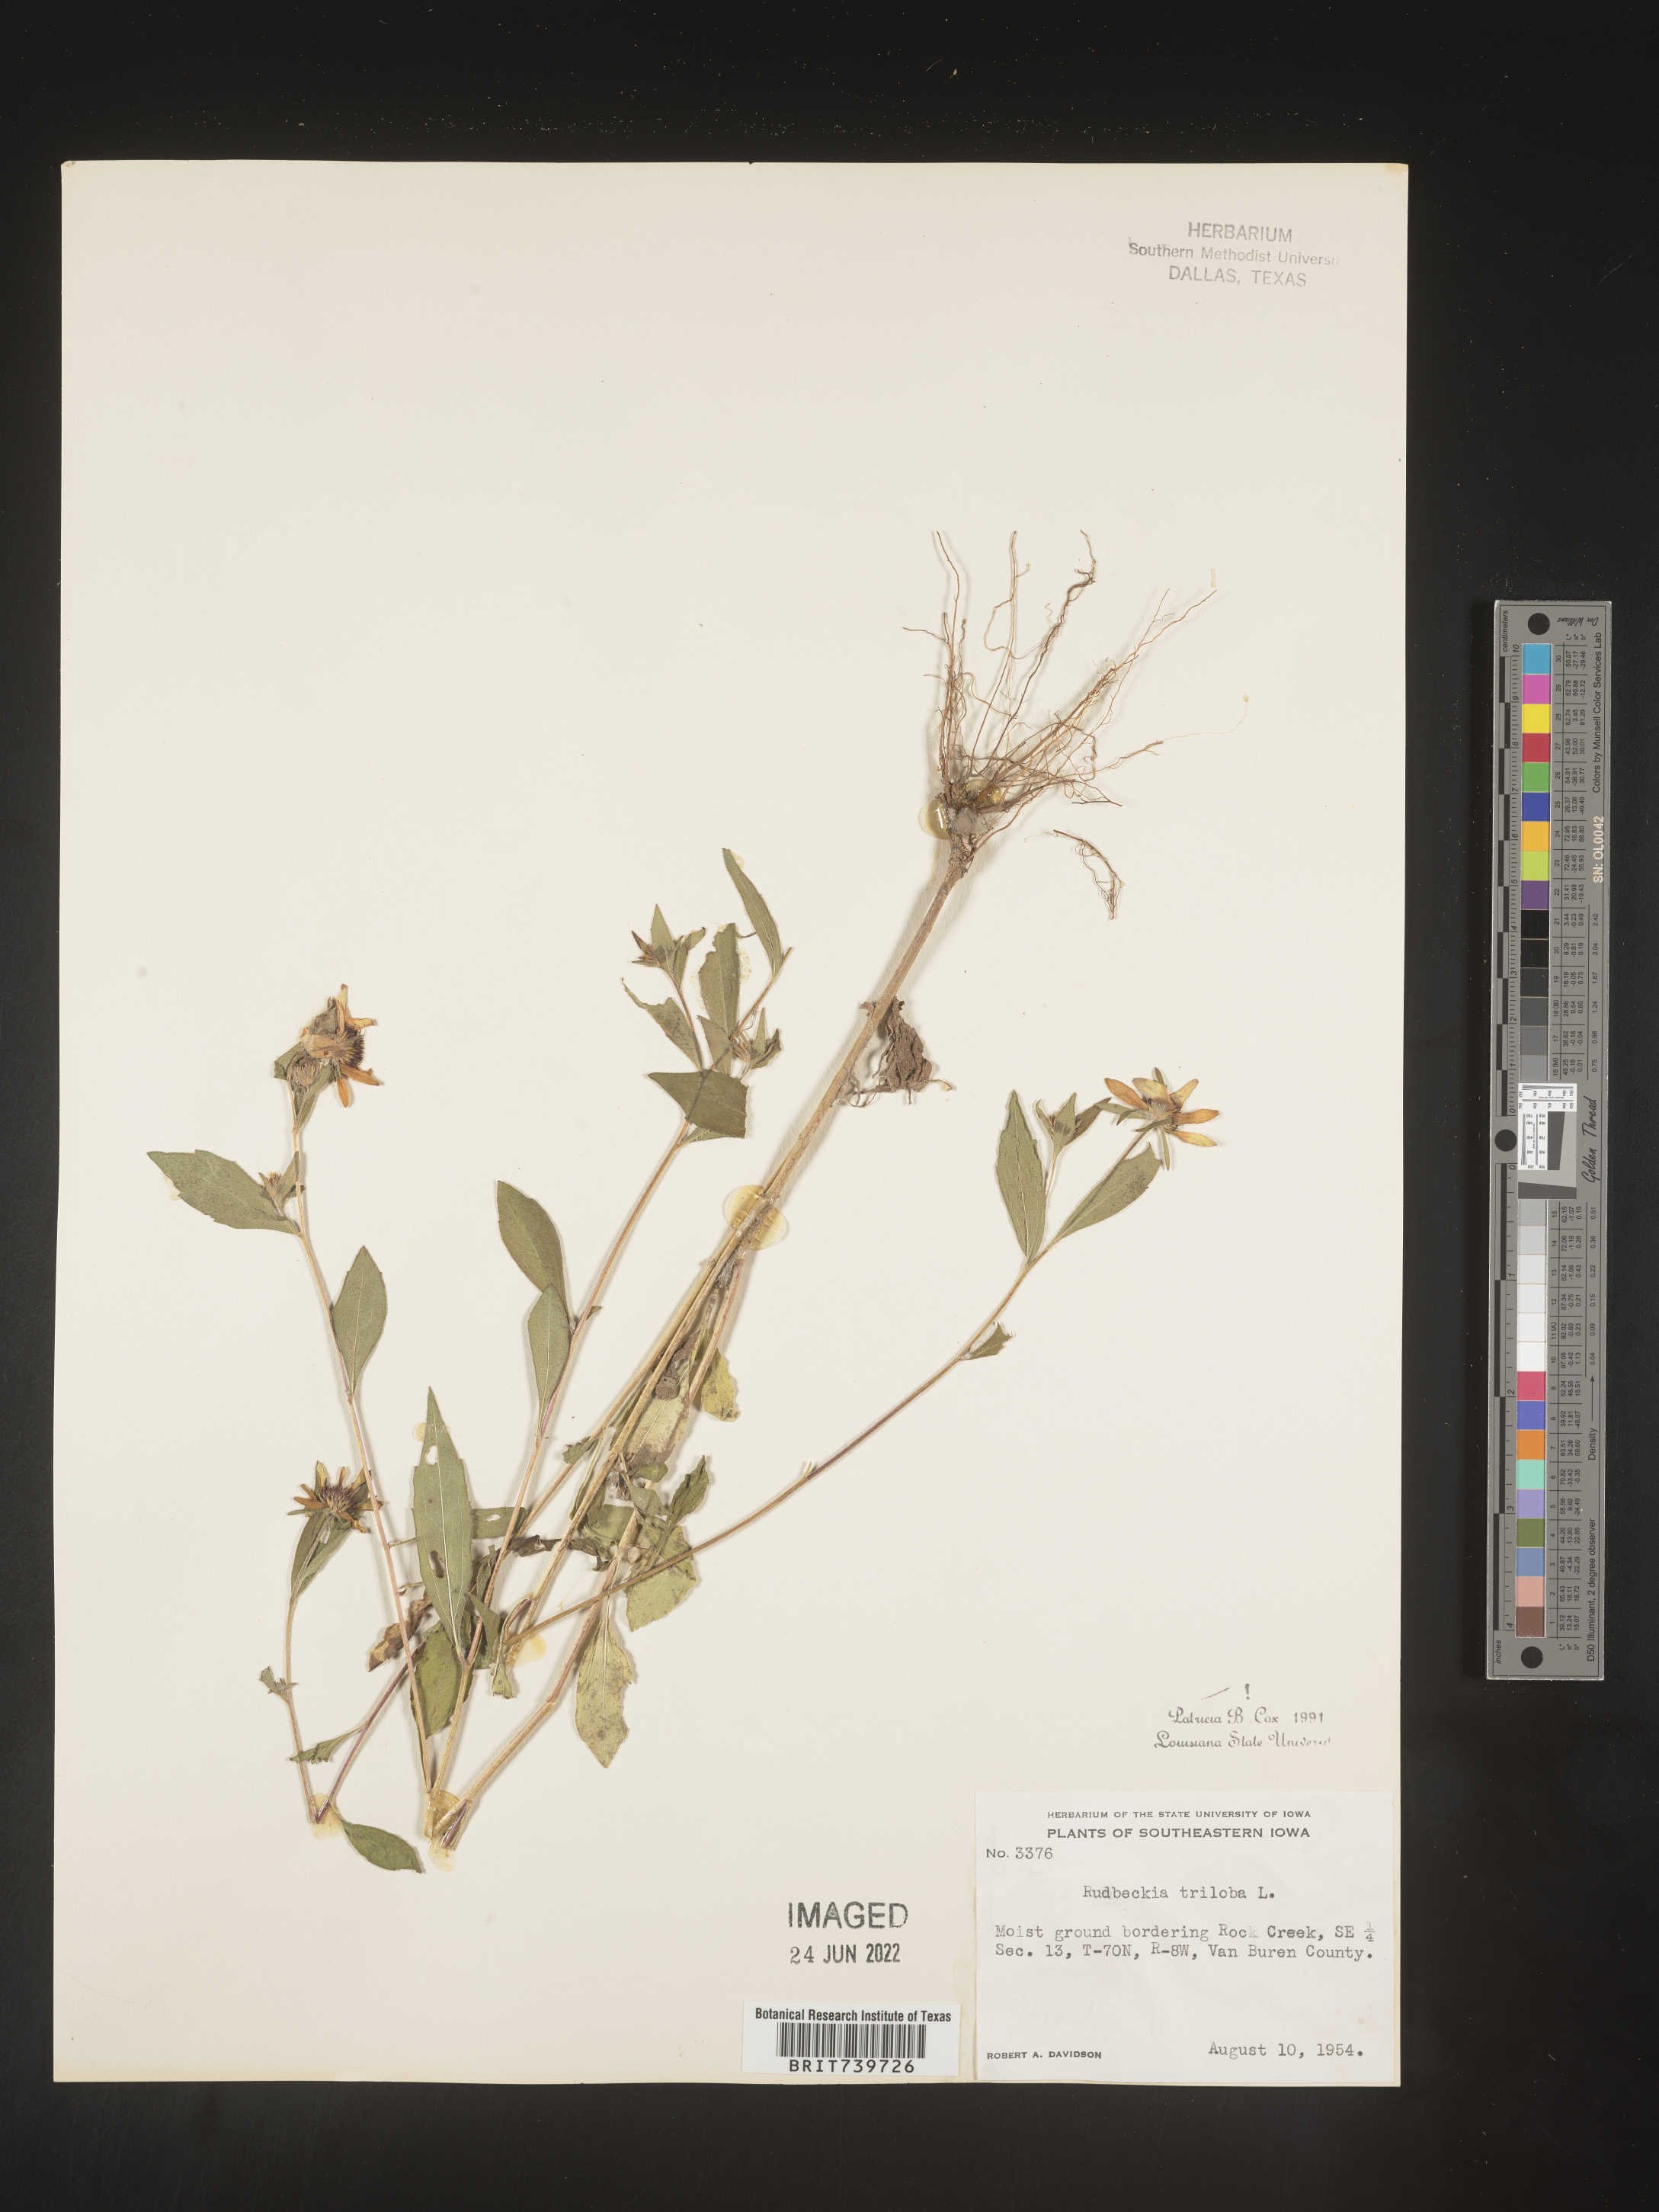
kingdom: Plantae
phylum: Tracheophyta
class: Magnoliopsida
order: Asterales
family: Asteraceae
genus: Rudbeckia
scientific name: Rudbeckia triloba
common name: Thin-leaved coneflower
